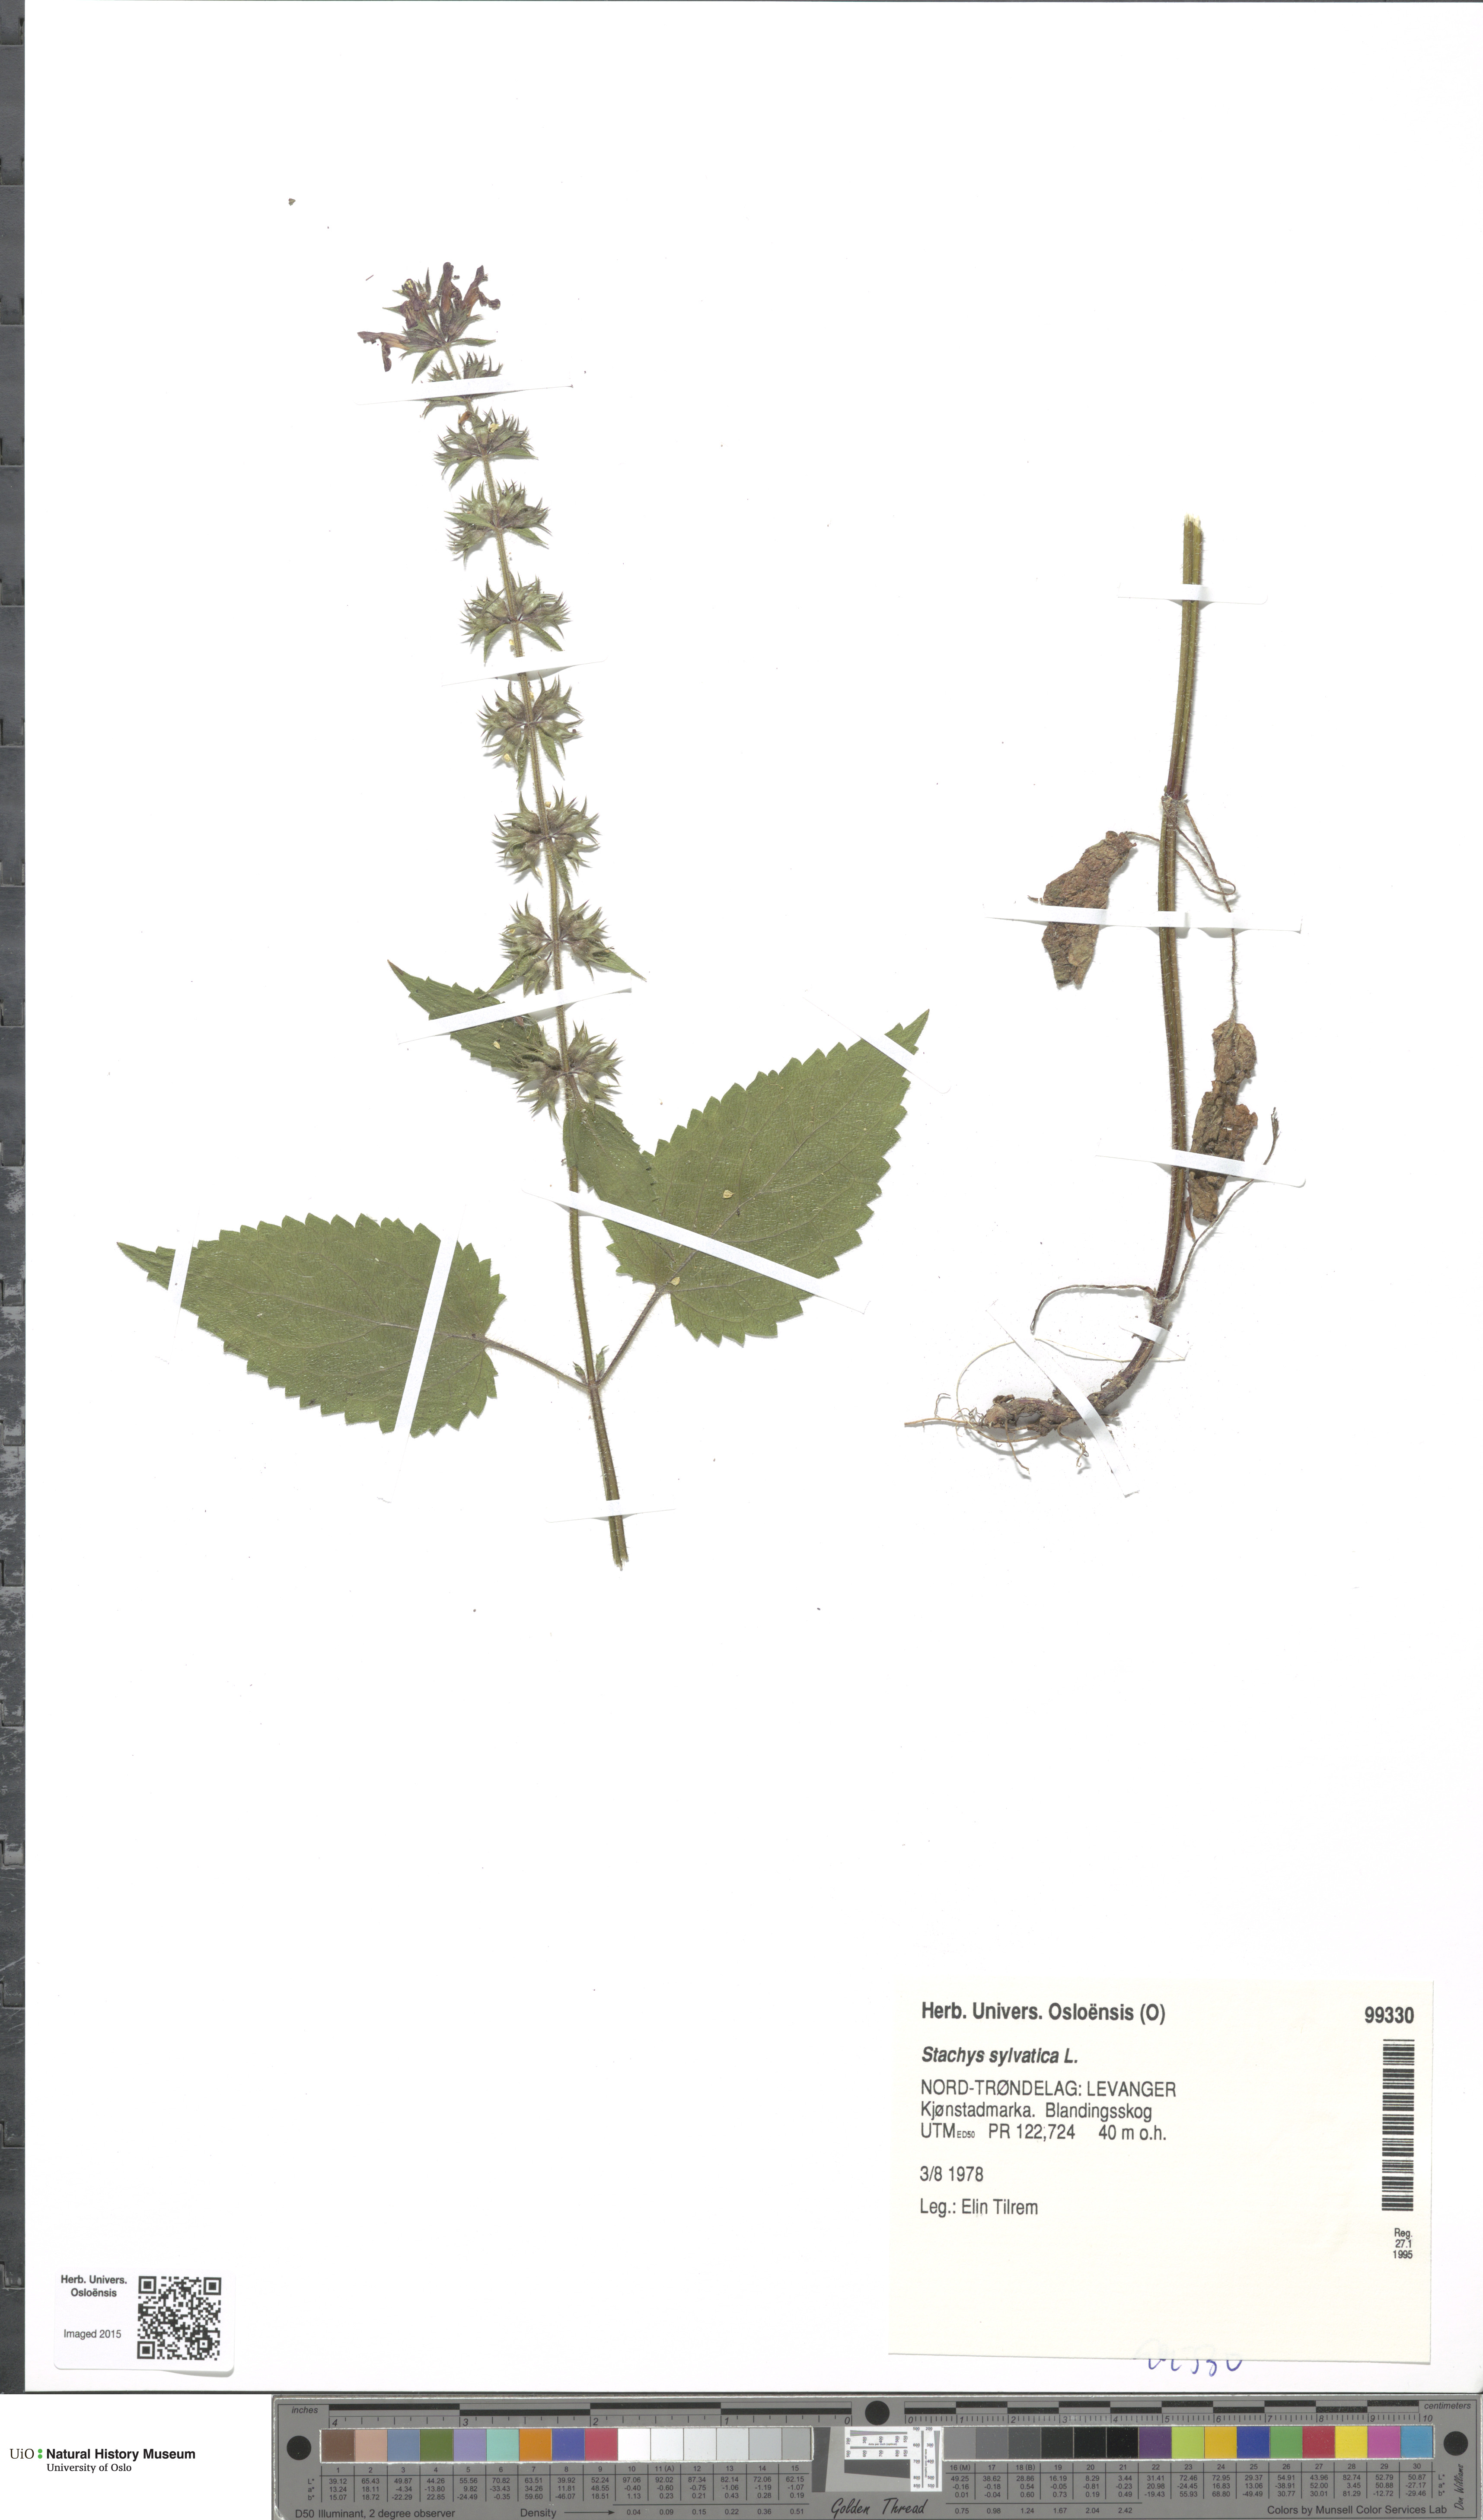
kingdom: Plantae
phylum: Tracheophyta
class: Magnoliopsida
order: Lamiales
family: Lamiaceae
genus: Stachys
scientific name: Stachys sylvatica
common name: Hedge woundwort
